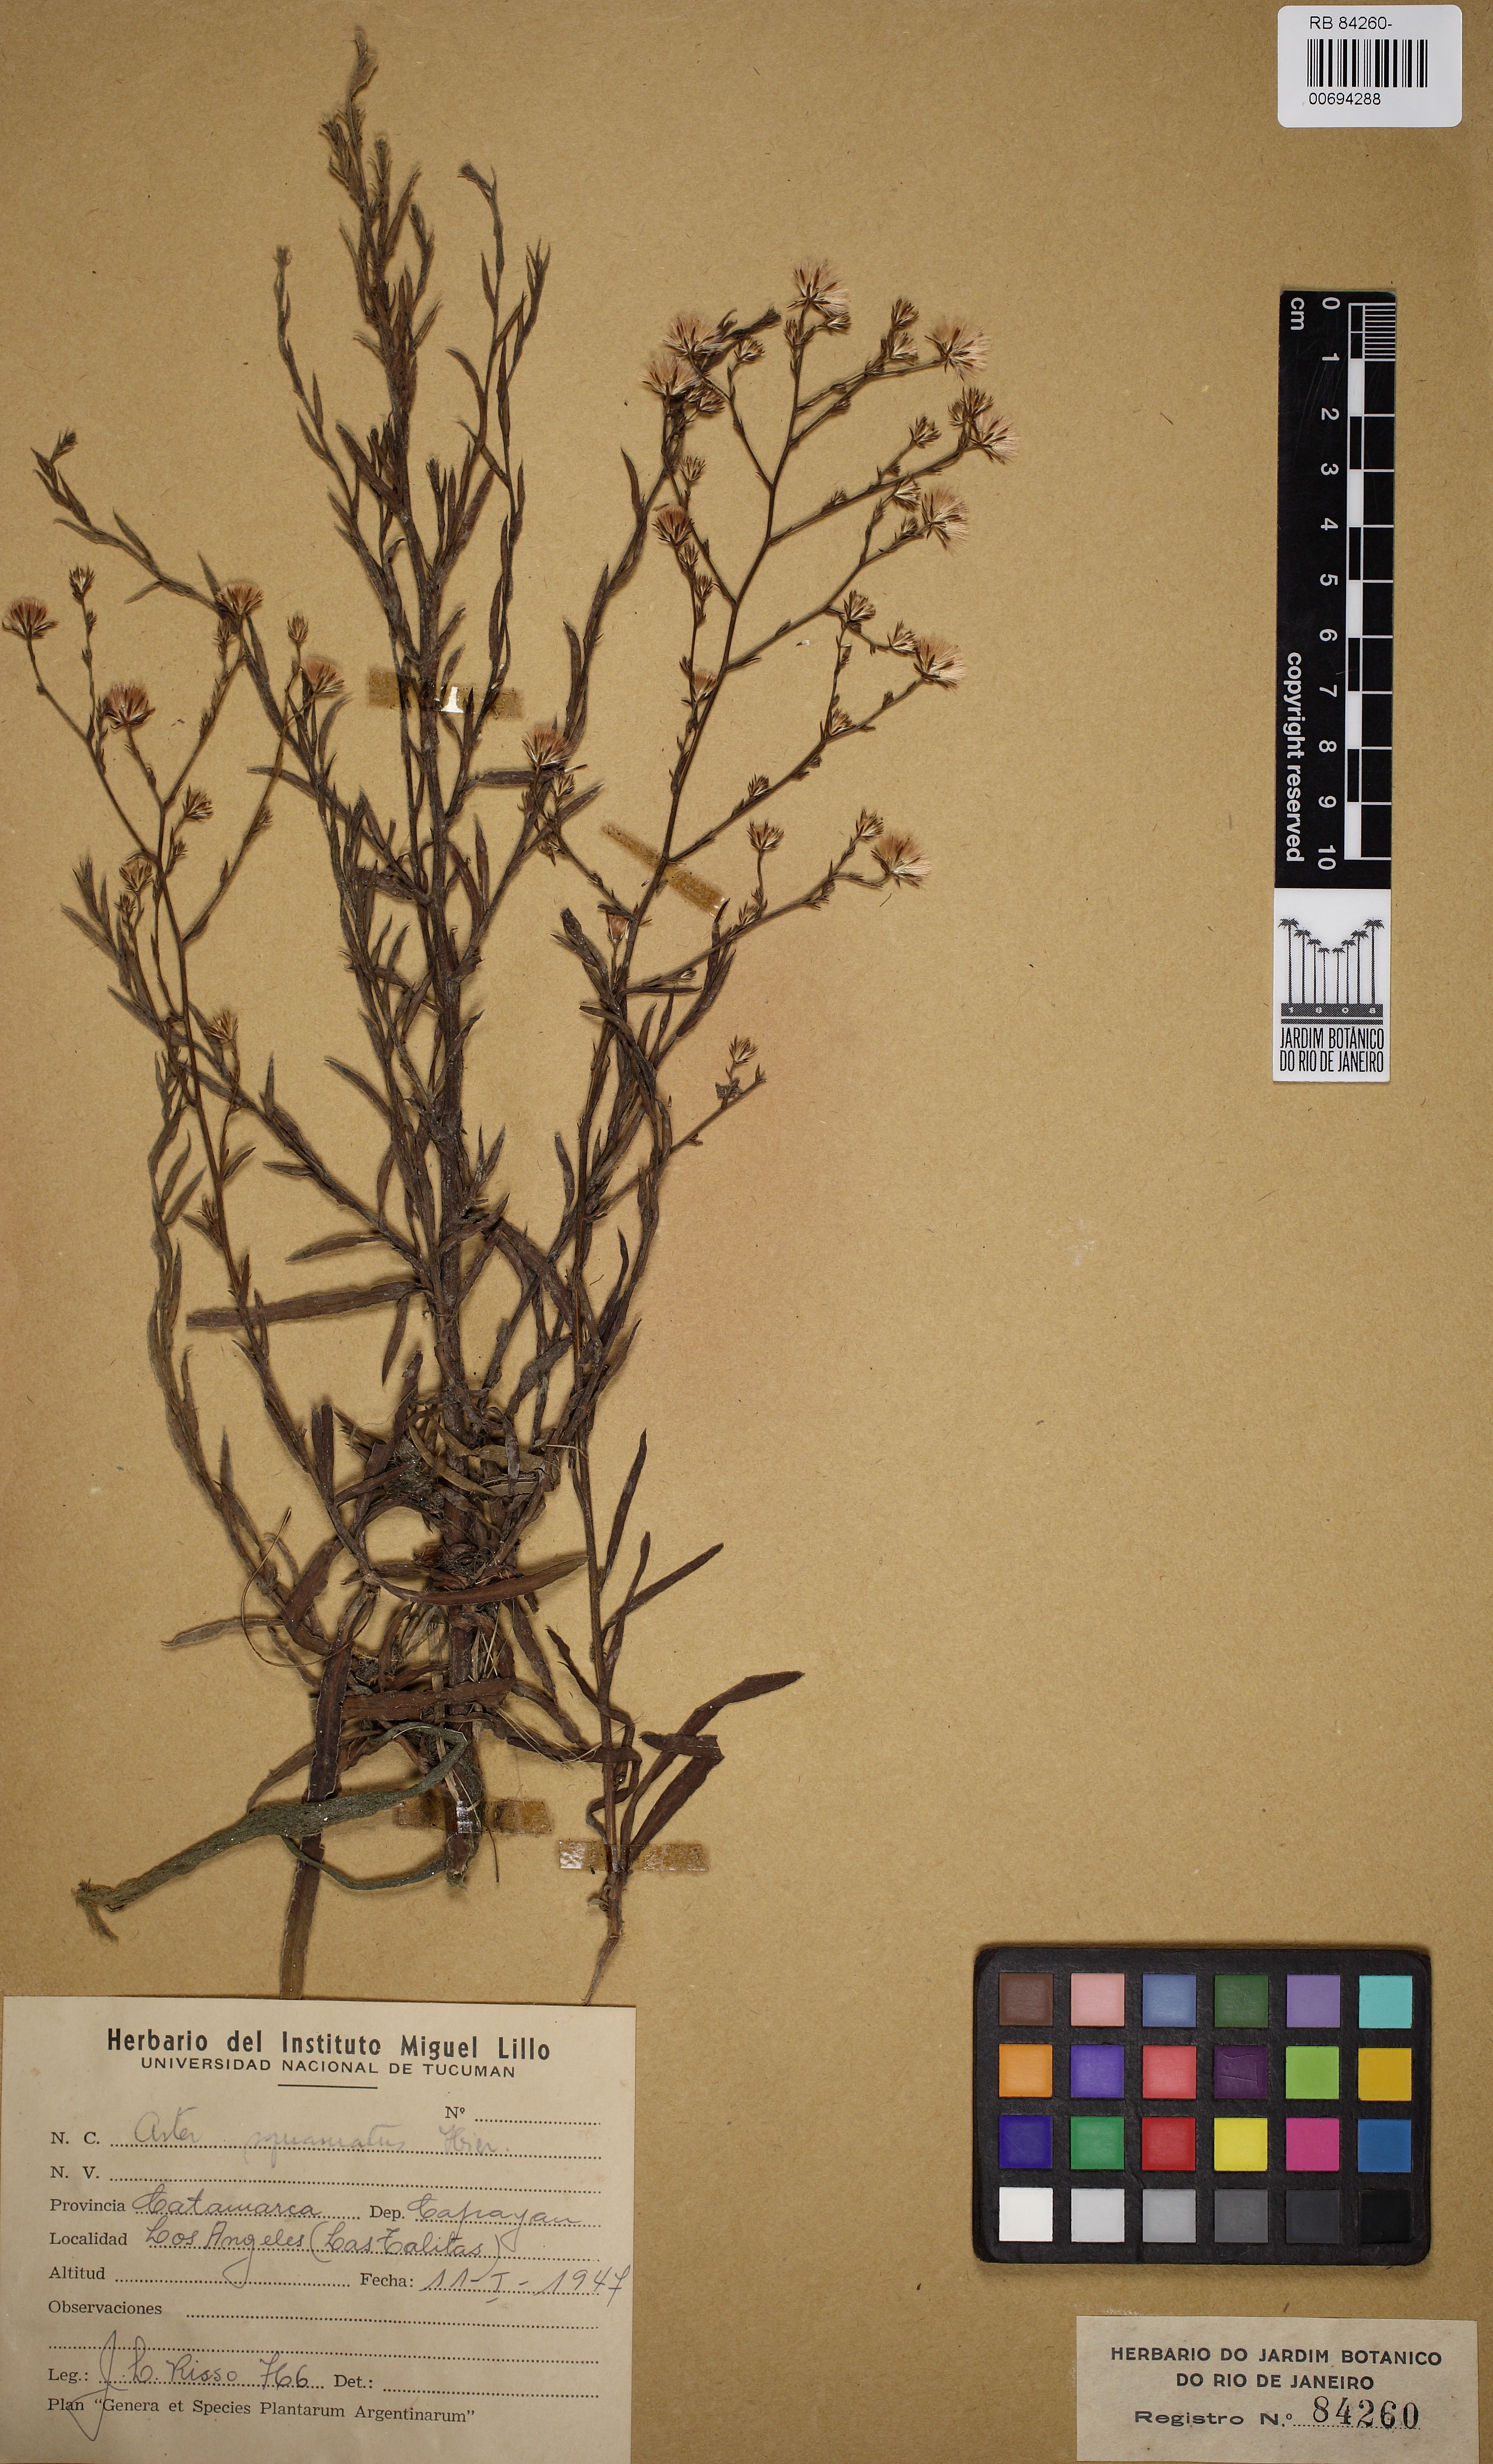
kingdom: Plantae
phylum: Tracheophyta
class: Magnoliopsida
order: Asterales
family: Asteraceae
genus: Symphyotrichum
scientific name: Symphyotrichum squamatum
